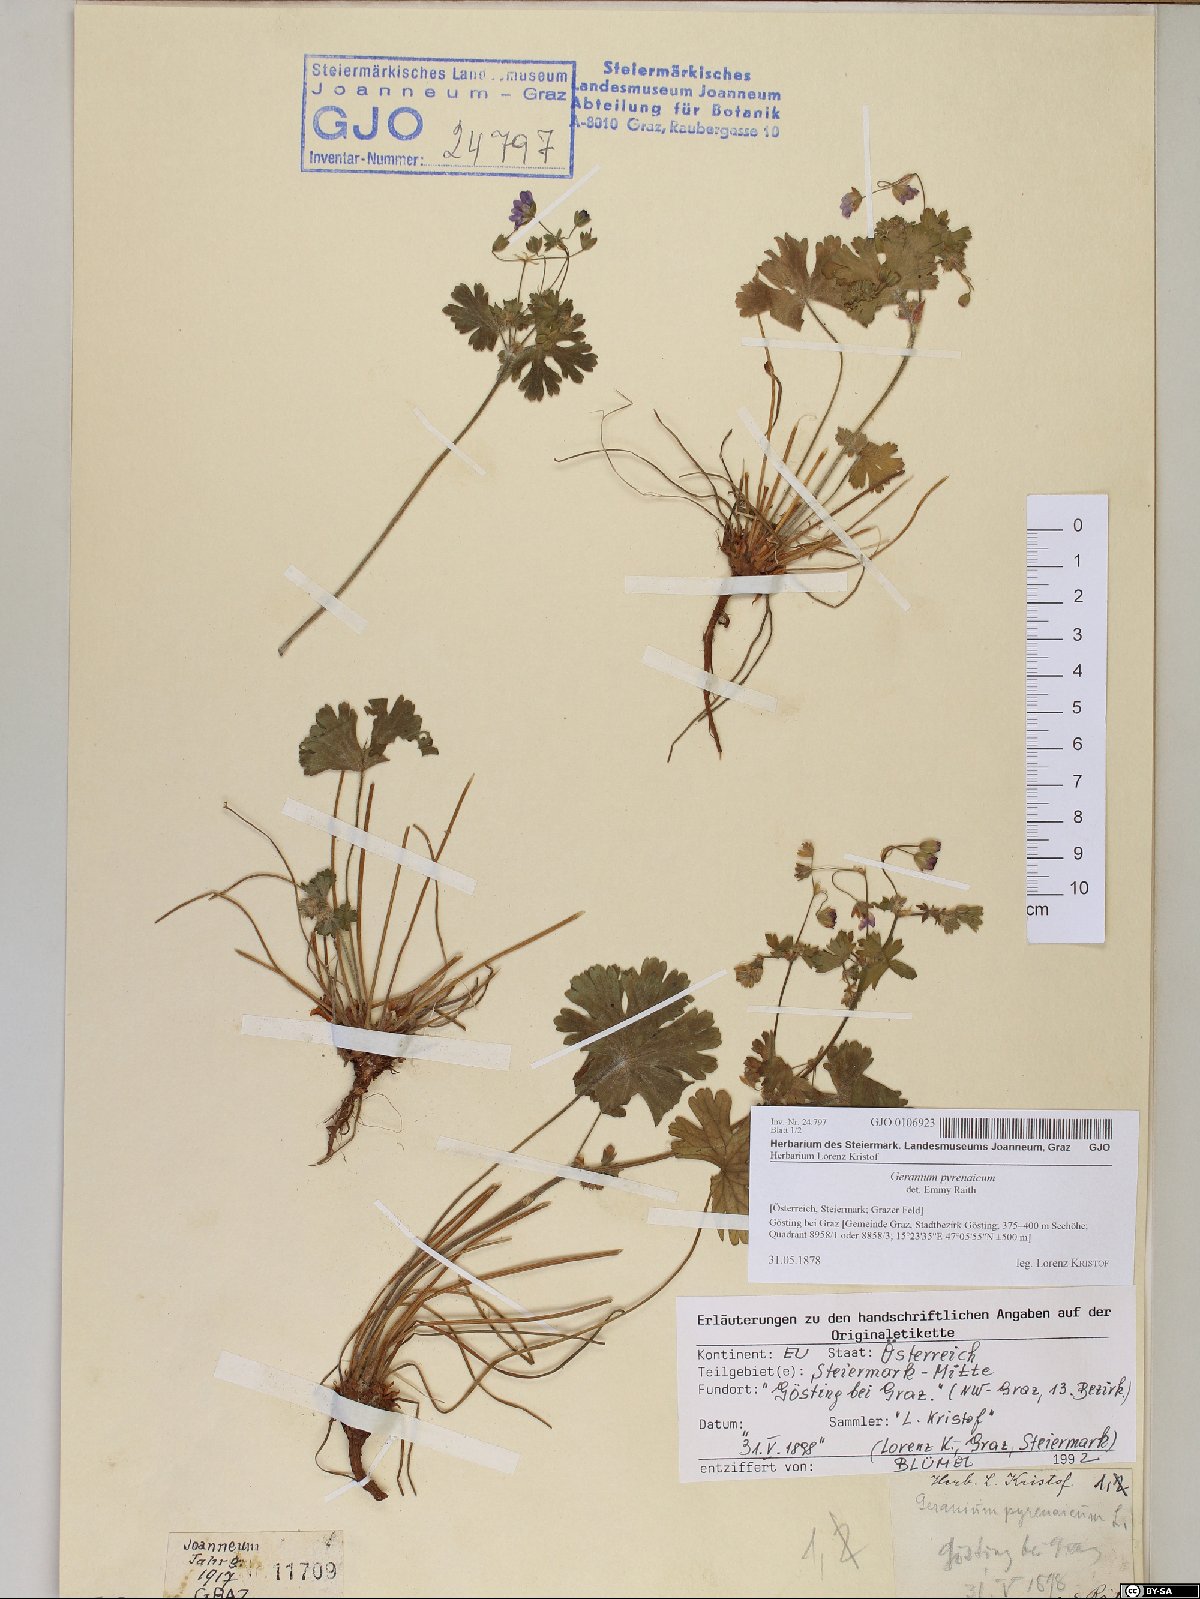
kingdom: Plantae
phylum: Tracheophyta
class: Magnoliopsida
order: Geraniales
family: Geraniaceae
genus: Geranium
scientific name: Geranium pyrenaicum
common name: Hedgerow crane's-bill
